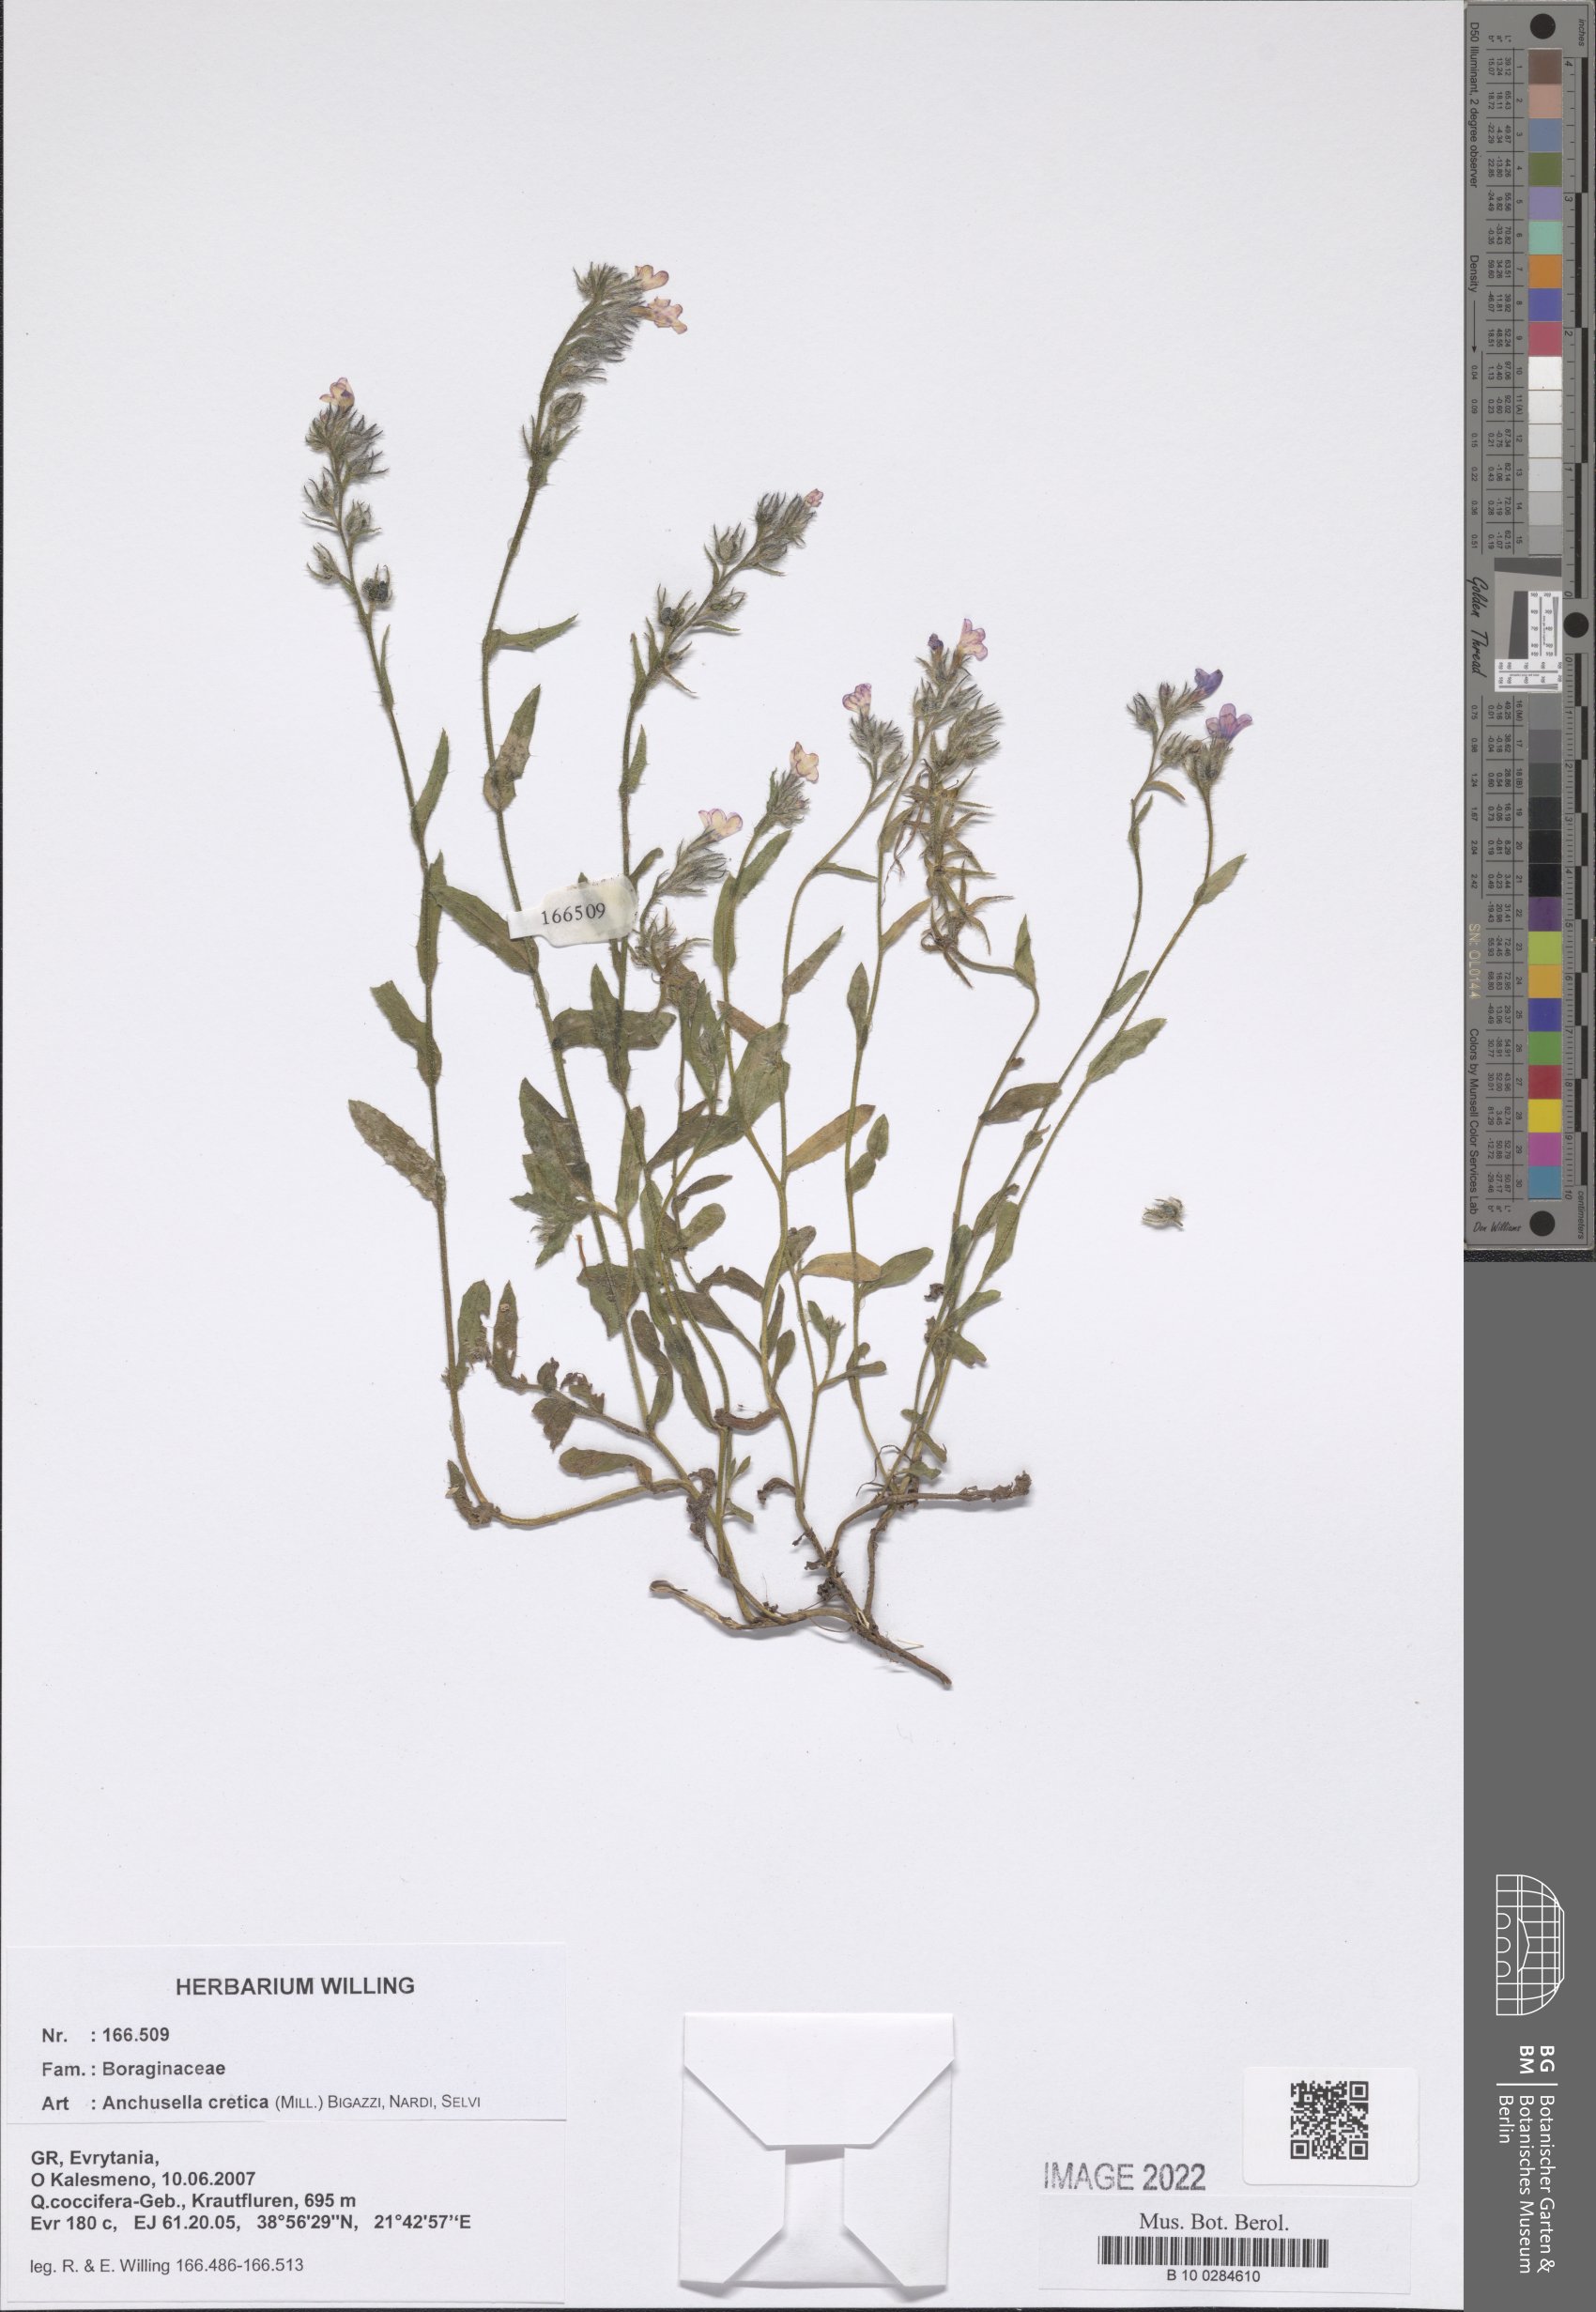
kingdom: Plantae
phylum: Tracheophyta
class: Magnoliopsida
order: Boraginales
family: Boraginaceae
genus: Lycopsis
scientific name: Lycopsis arvensis
